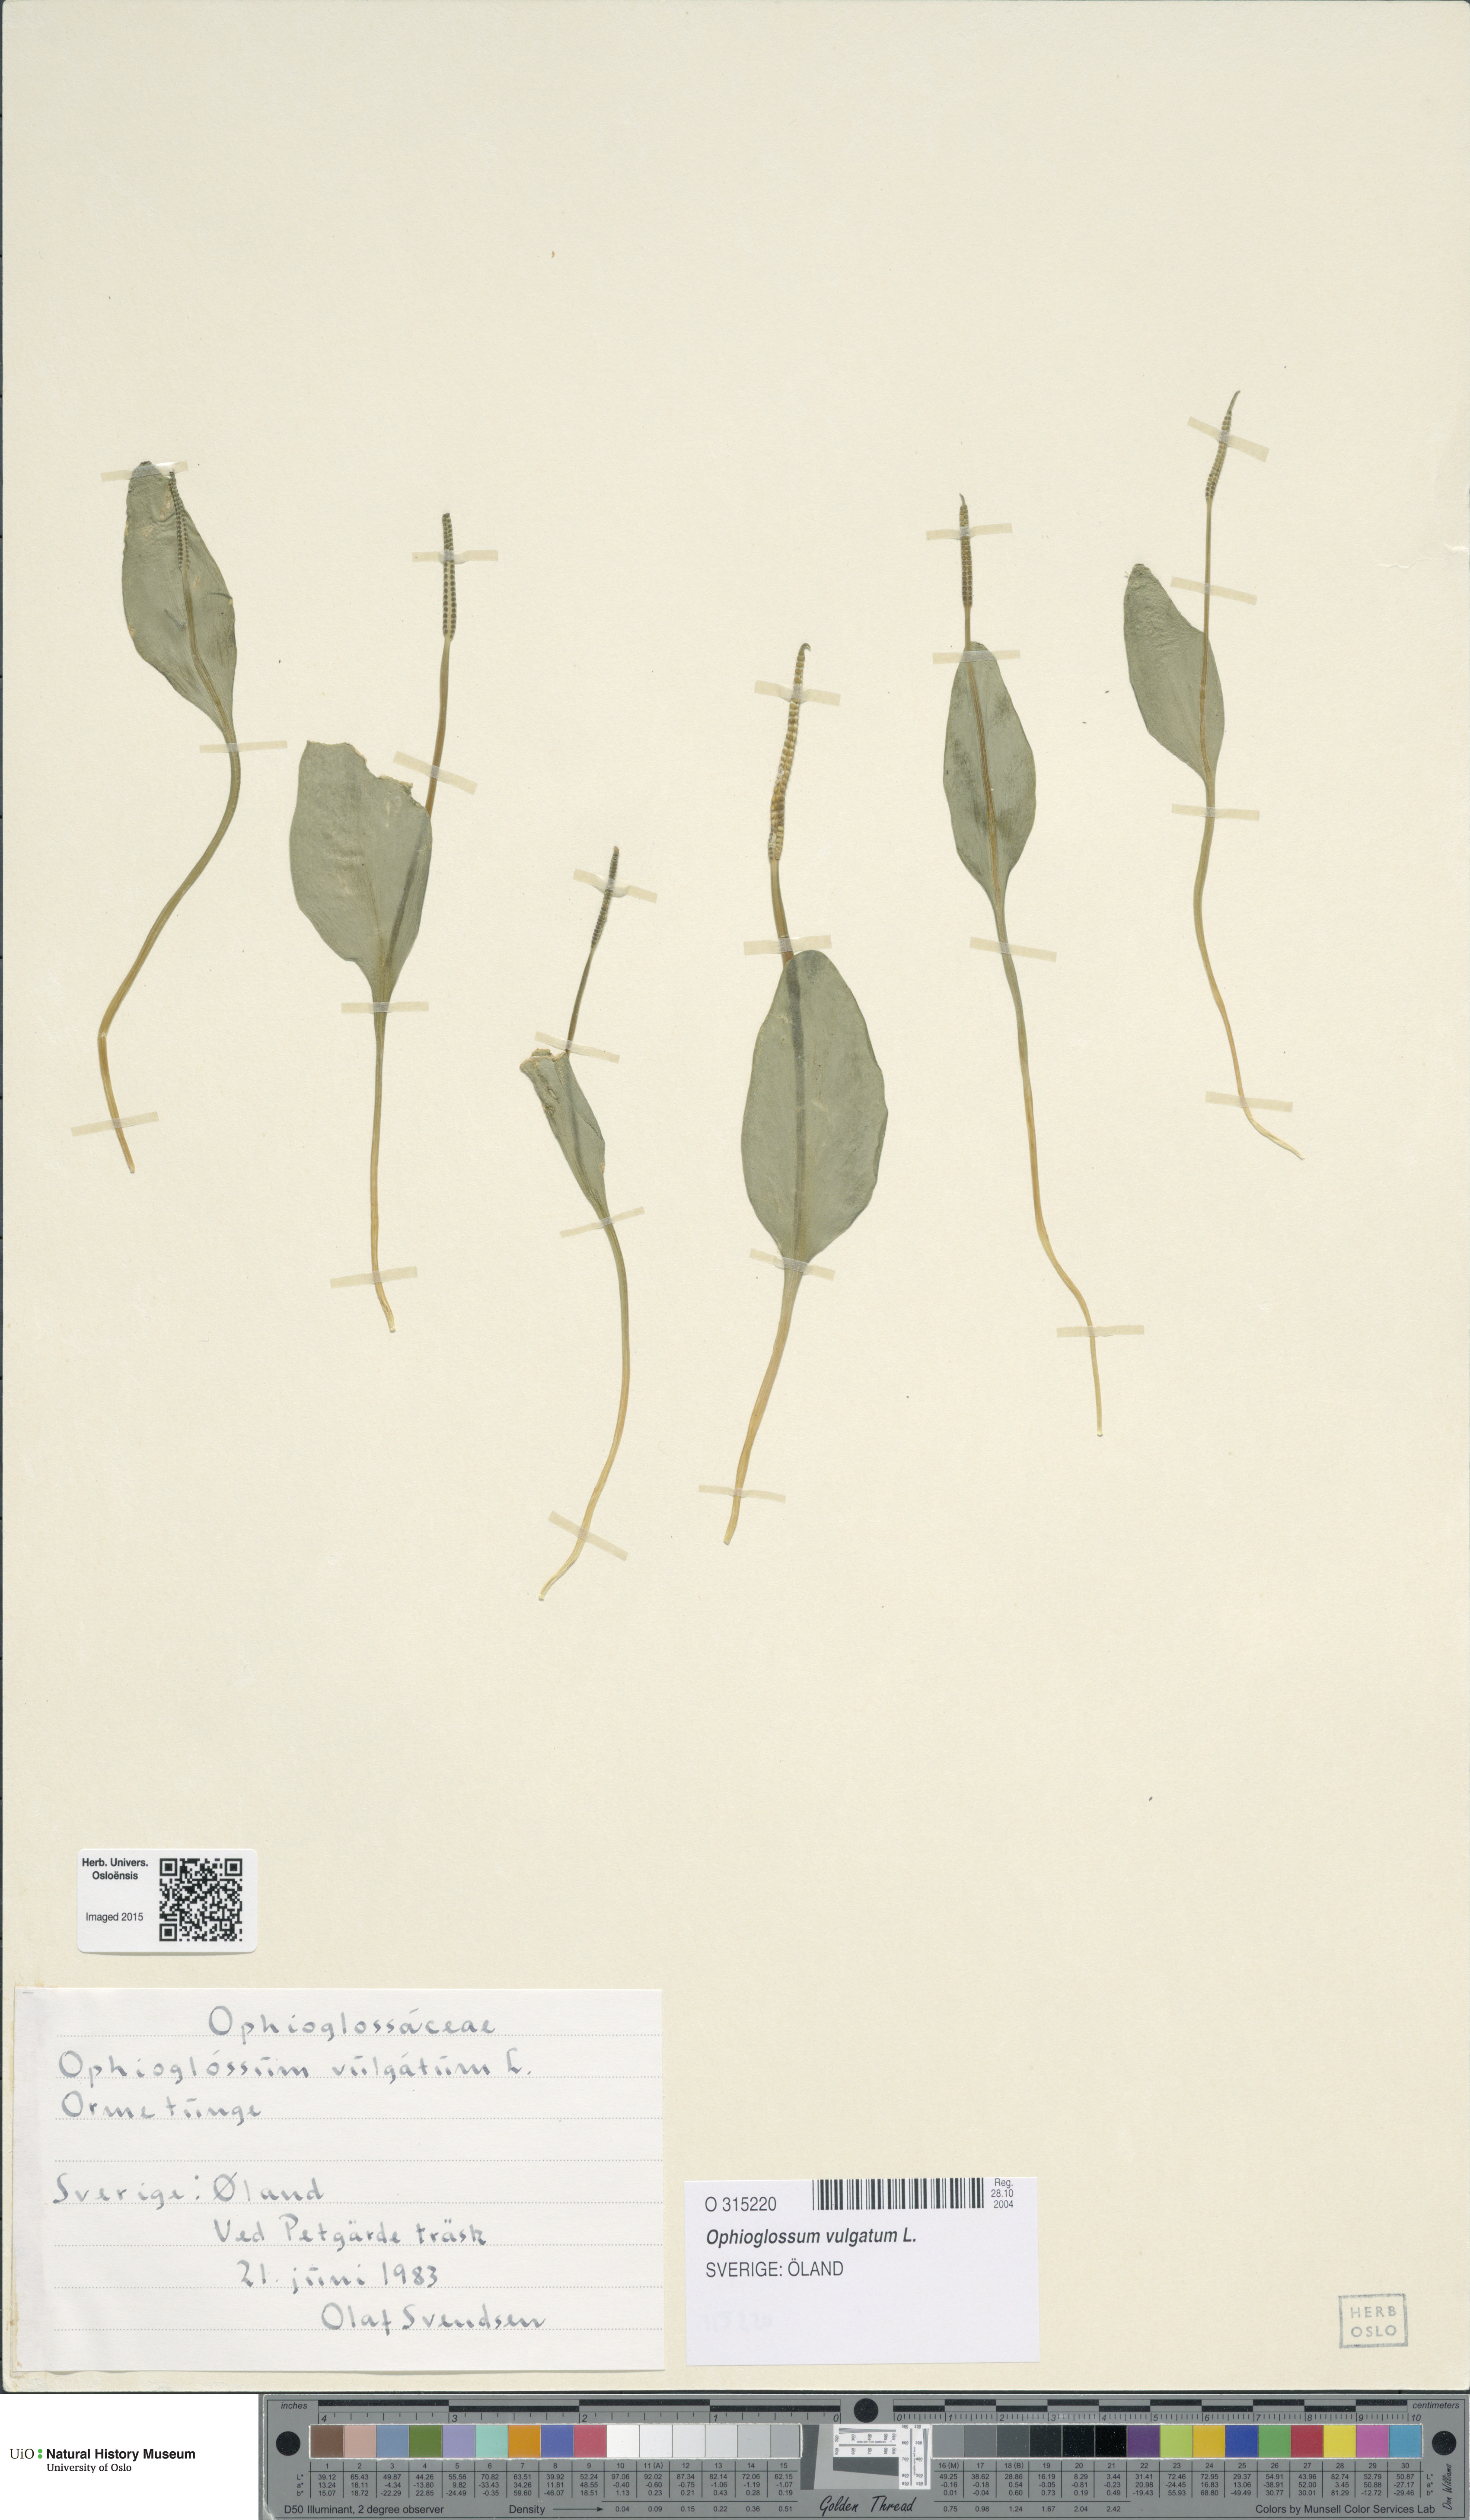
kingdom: Plantae
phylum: Tracheophyta
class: Polypodiopsida
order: Ophioglossales
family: Ophioglossaceae
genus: Ophioglossum
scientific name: Ophioglossum vulgatum
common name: Adder's-tongue
